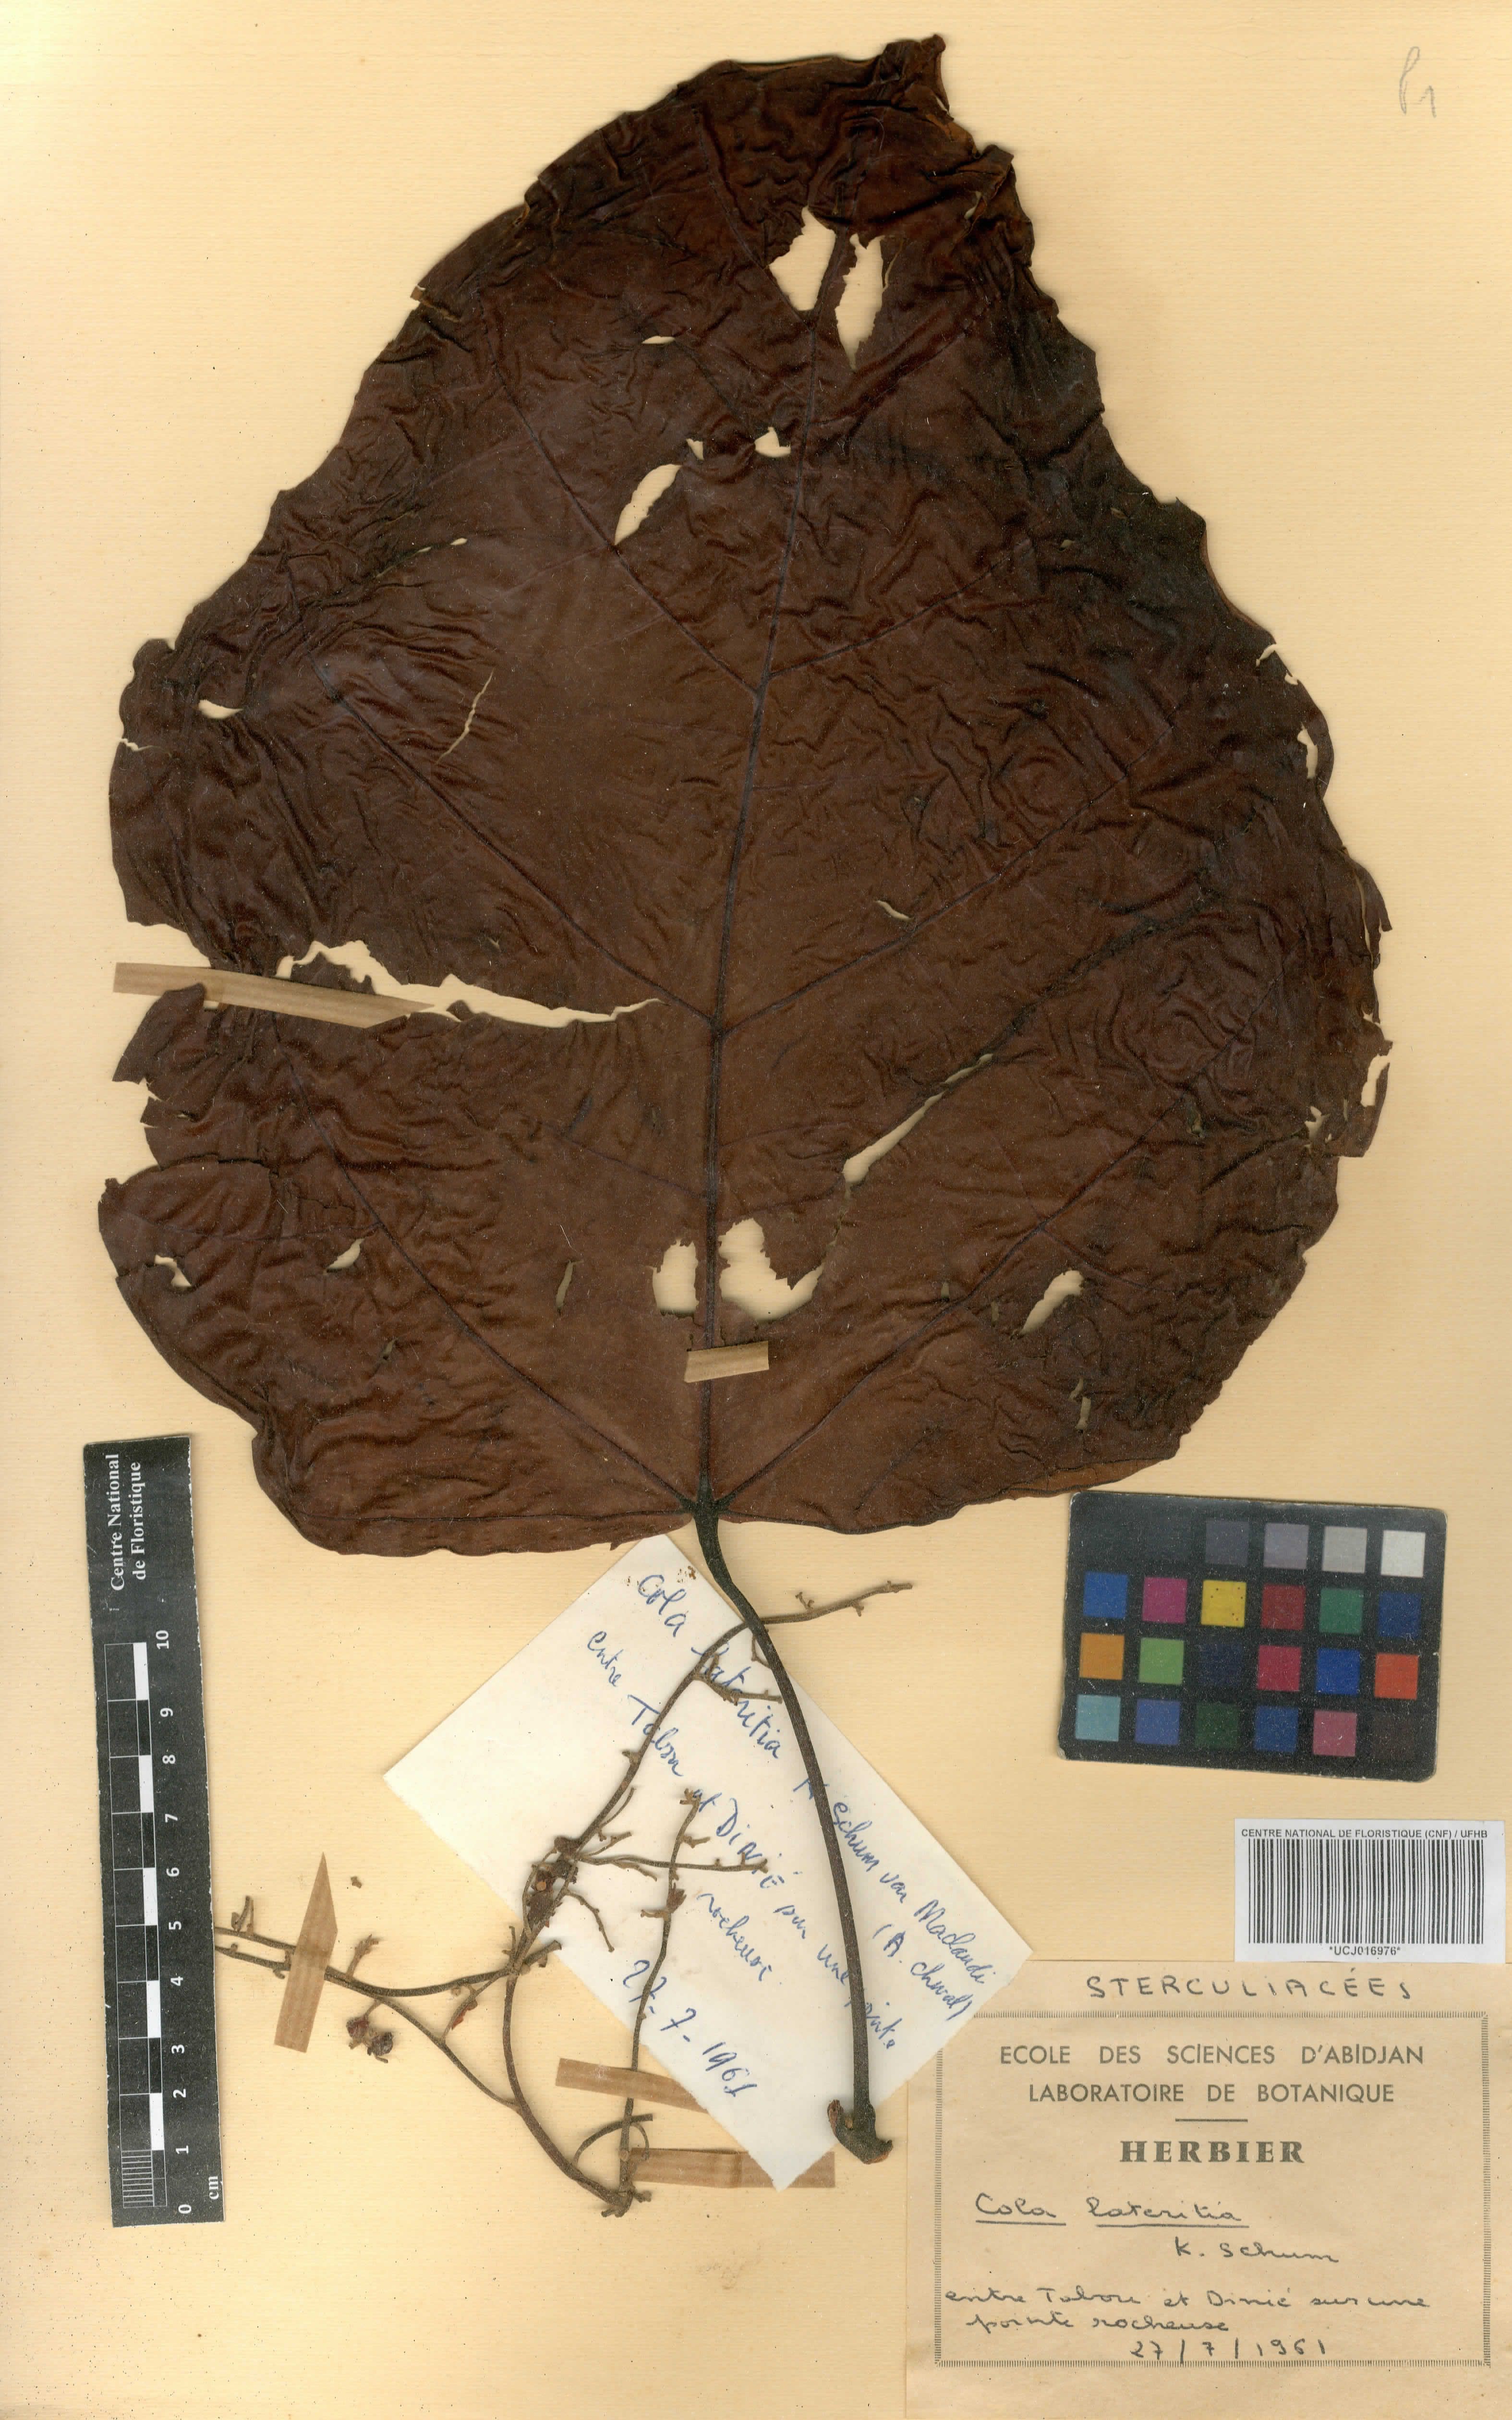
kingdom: Plantae
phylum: Tracheophyta
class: Magnoliopsida
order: Malvales
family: Malvaceae
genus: Cola
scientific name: Cola lateritia
